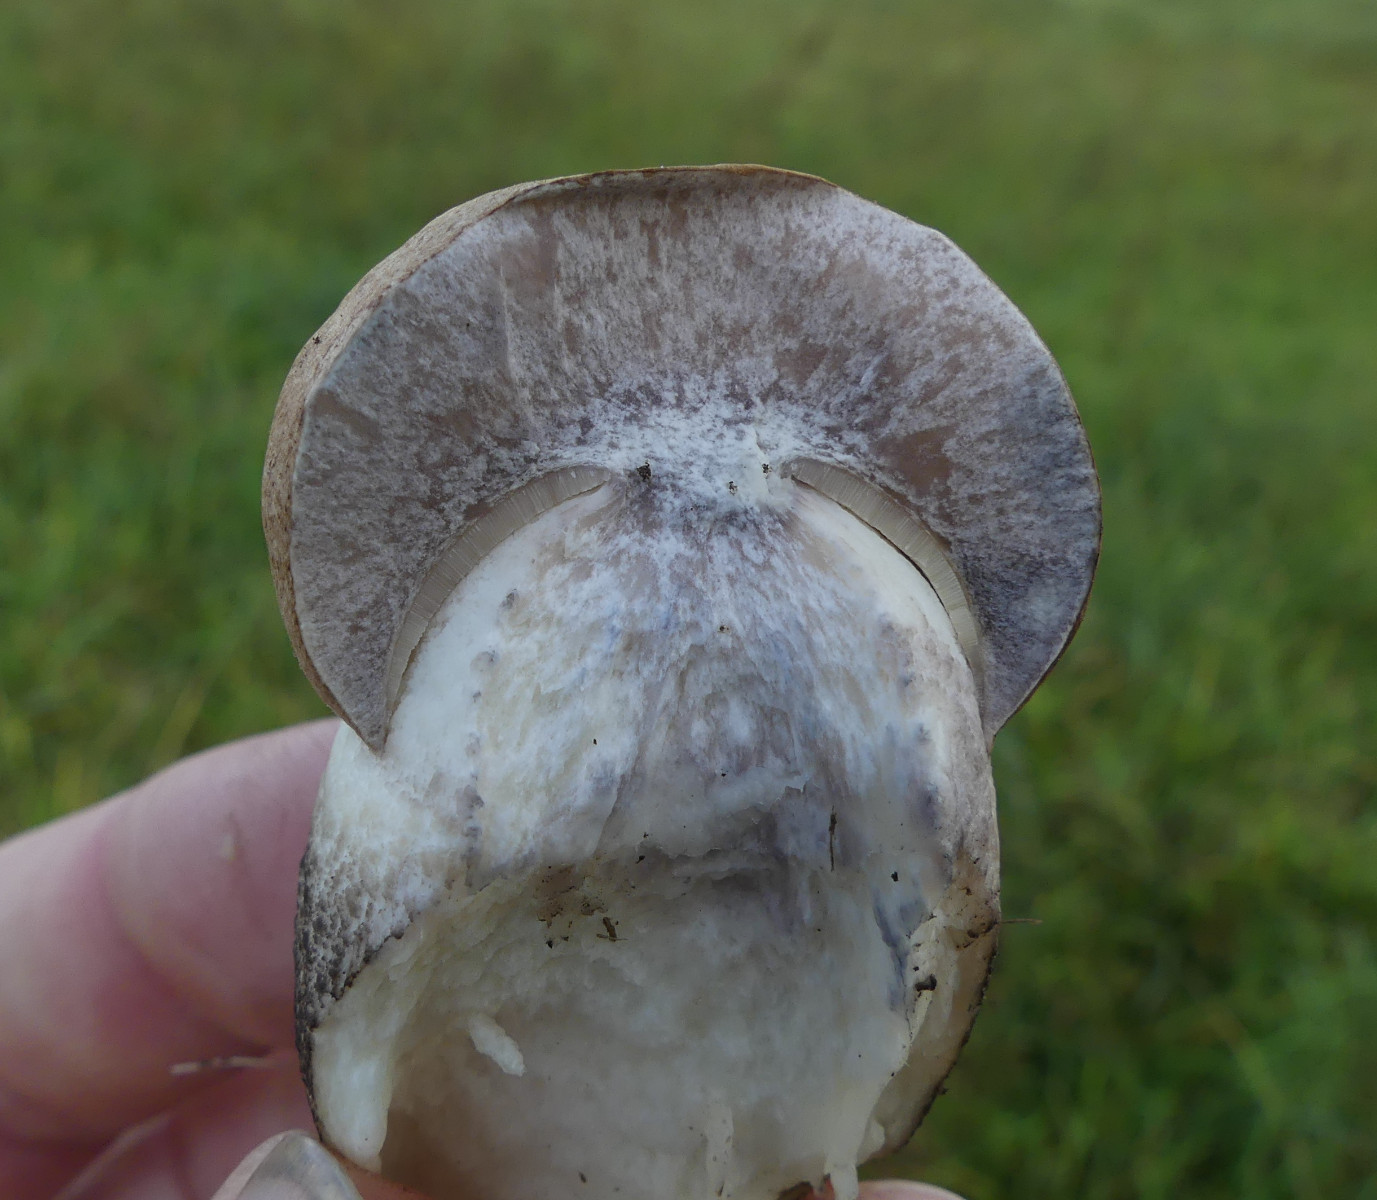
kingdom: Fungi
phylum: Basidiomycota
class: Agaricomycetes
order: Boletales
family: Boletaceae
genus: Leccinum
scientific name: Leccinum duriusculum
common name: poppel-skælrørhat
